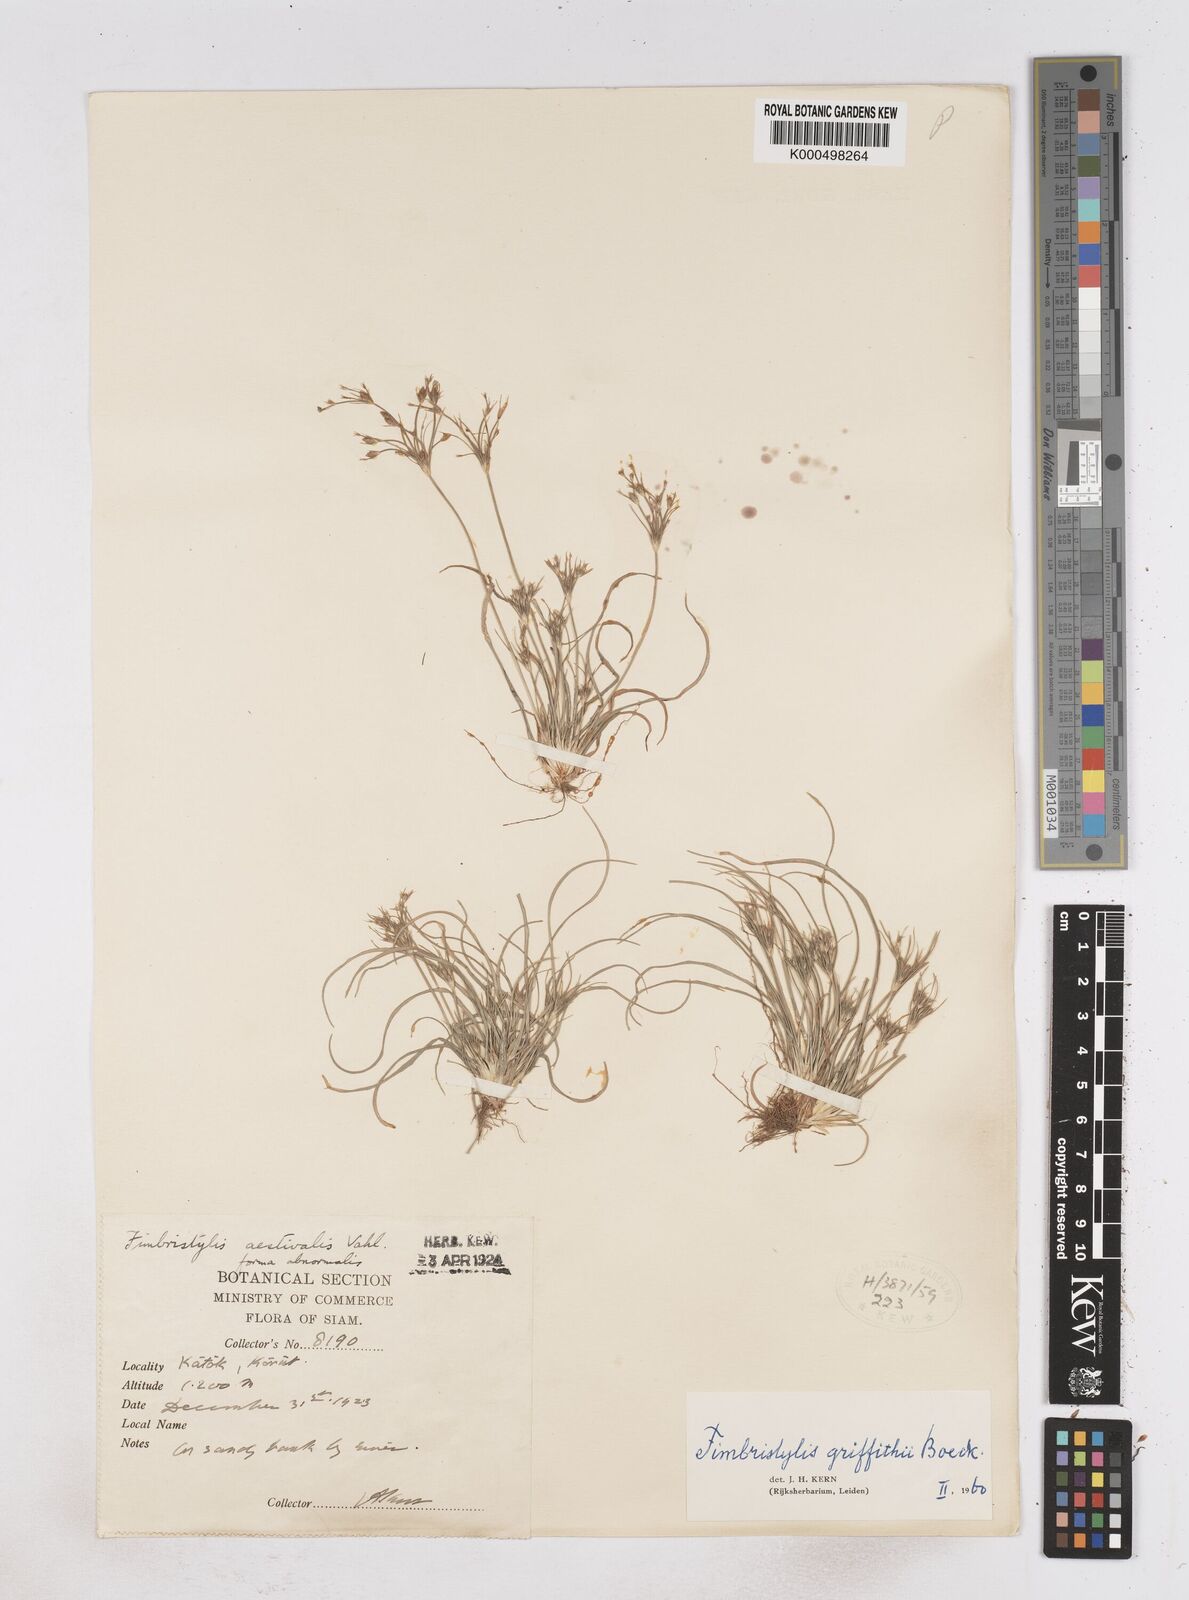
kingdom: Plantae
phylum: Tracheophyta
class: Liliopsida
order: Poales
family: Cyperaceae
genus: Fimbristylis
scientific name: Fimbristylis griffithii
